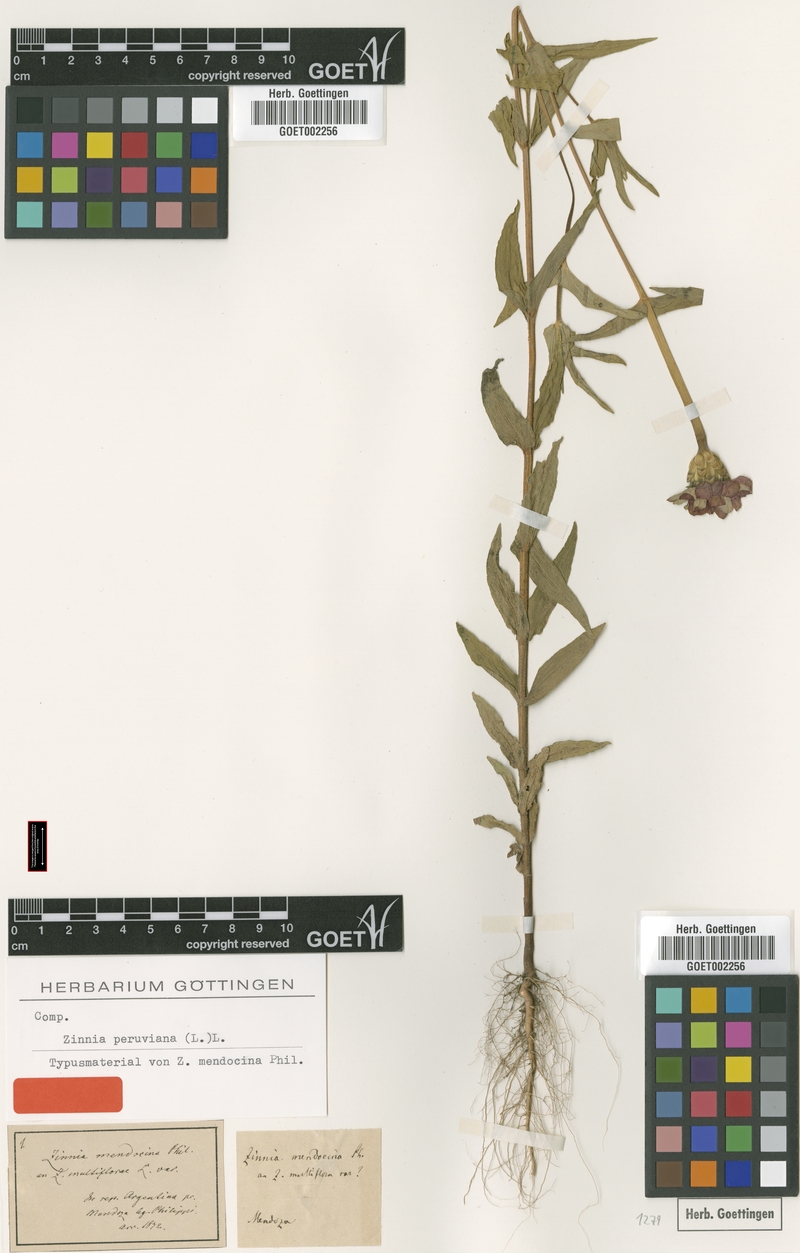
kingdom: Plantae
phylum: Tracheophyta
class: Magnoliopsida
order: Asterales
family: Asteraceae
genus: Zinnia
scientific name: Zinnia peruviana
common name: Peruvian zinnia
